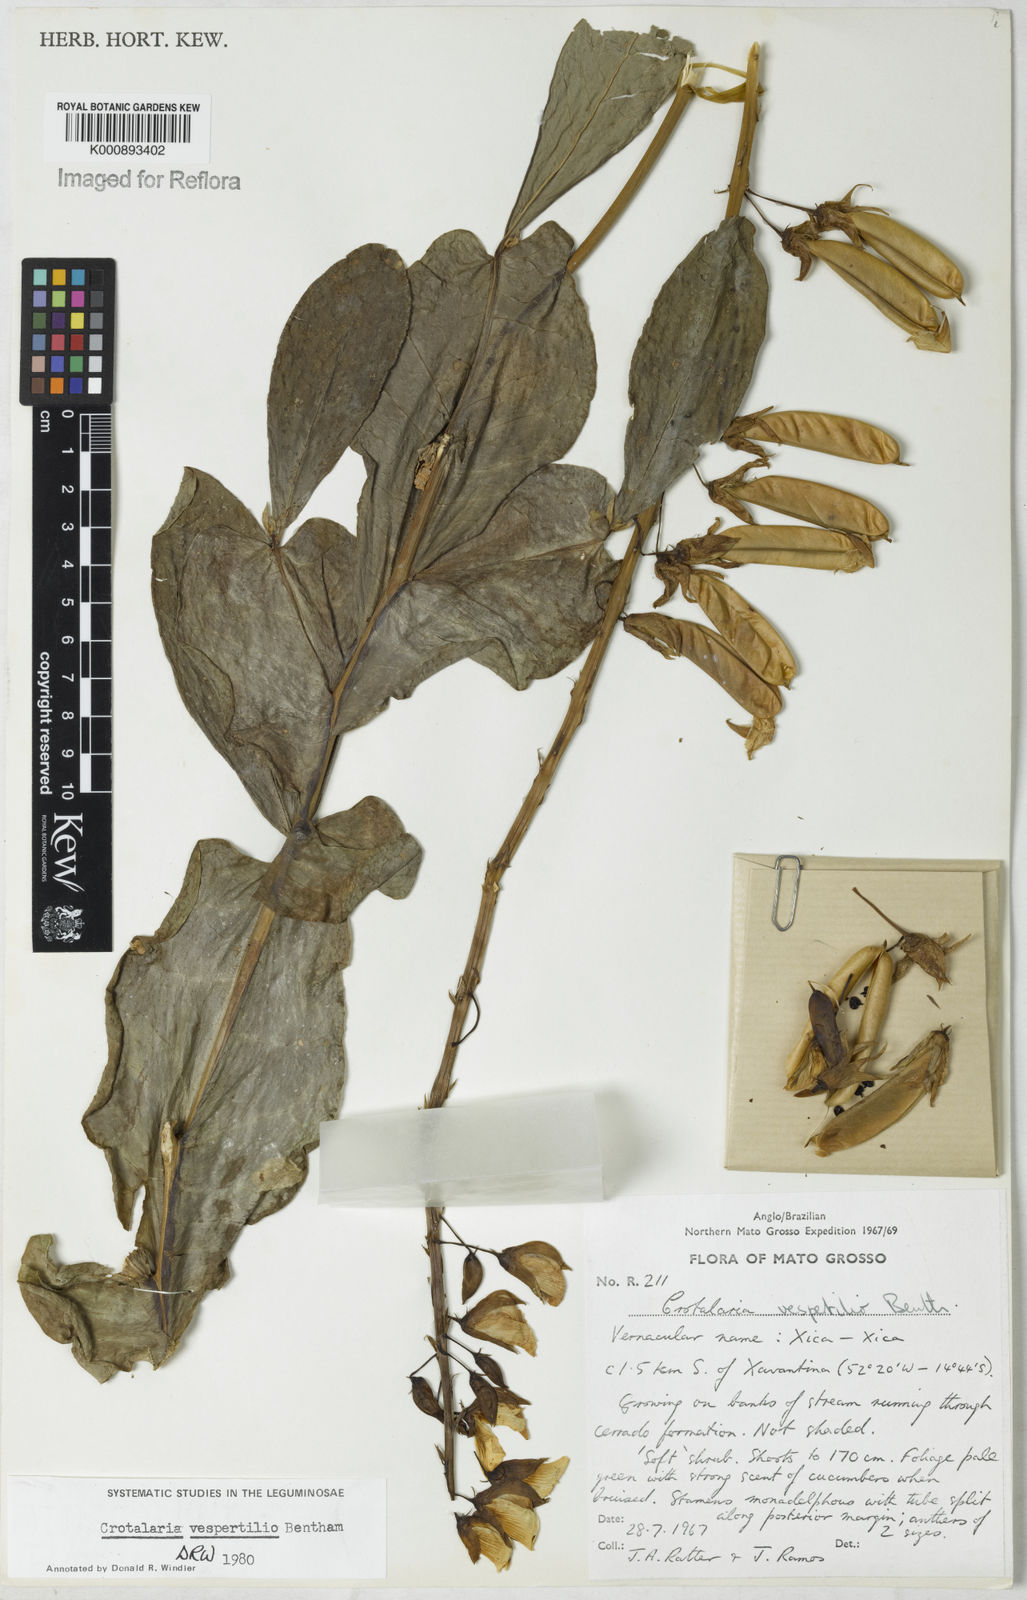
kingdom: Plantae
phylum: Tracheophyta
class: Magnoliopsida
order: Fabales
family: Fabaceae
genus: Crotalaria
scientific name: Crotalaria vespertilio
